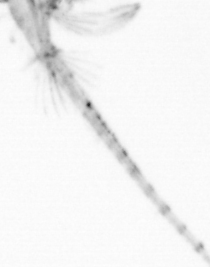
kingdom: Animalia
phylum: Arthropoda
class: Copepoda
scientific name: Copepoda
